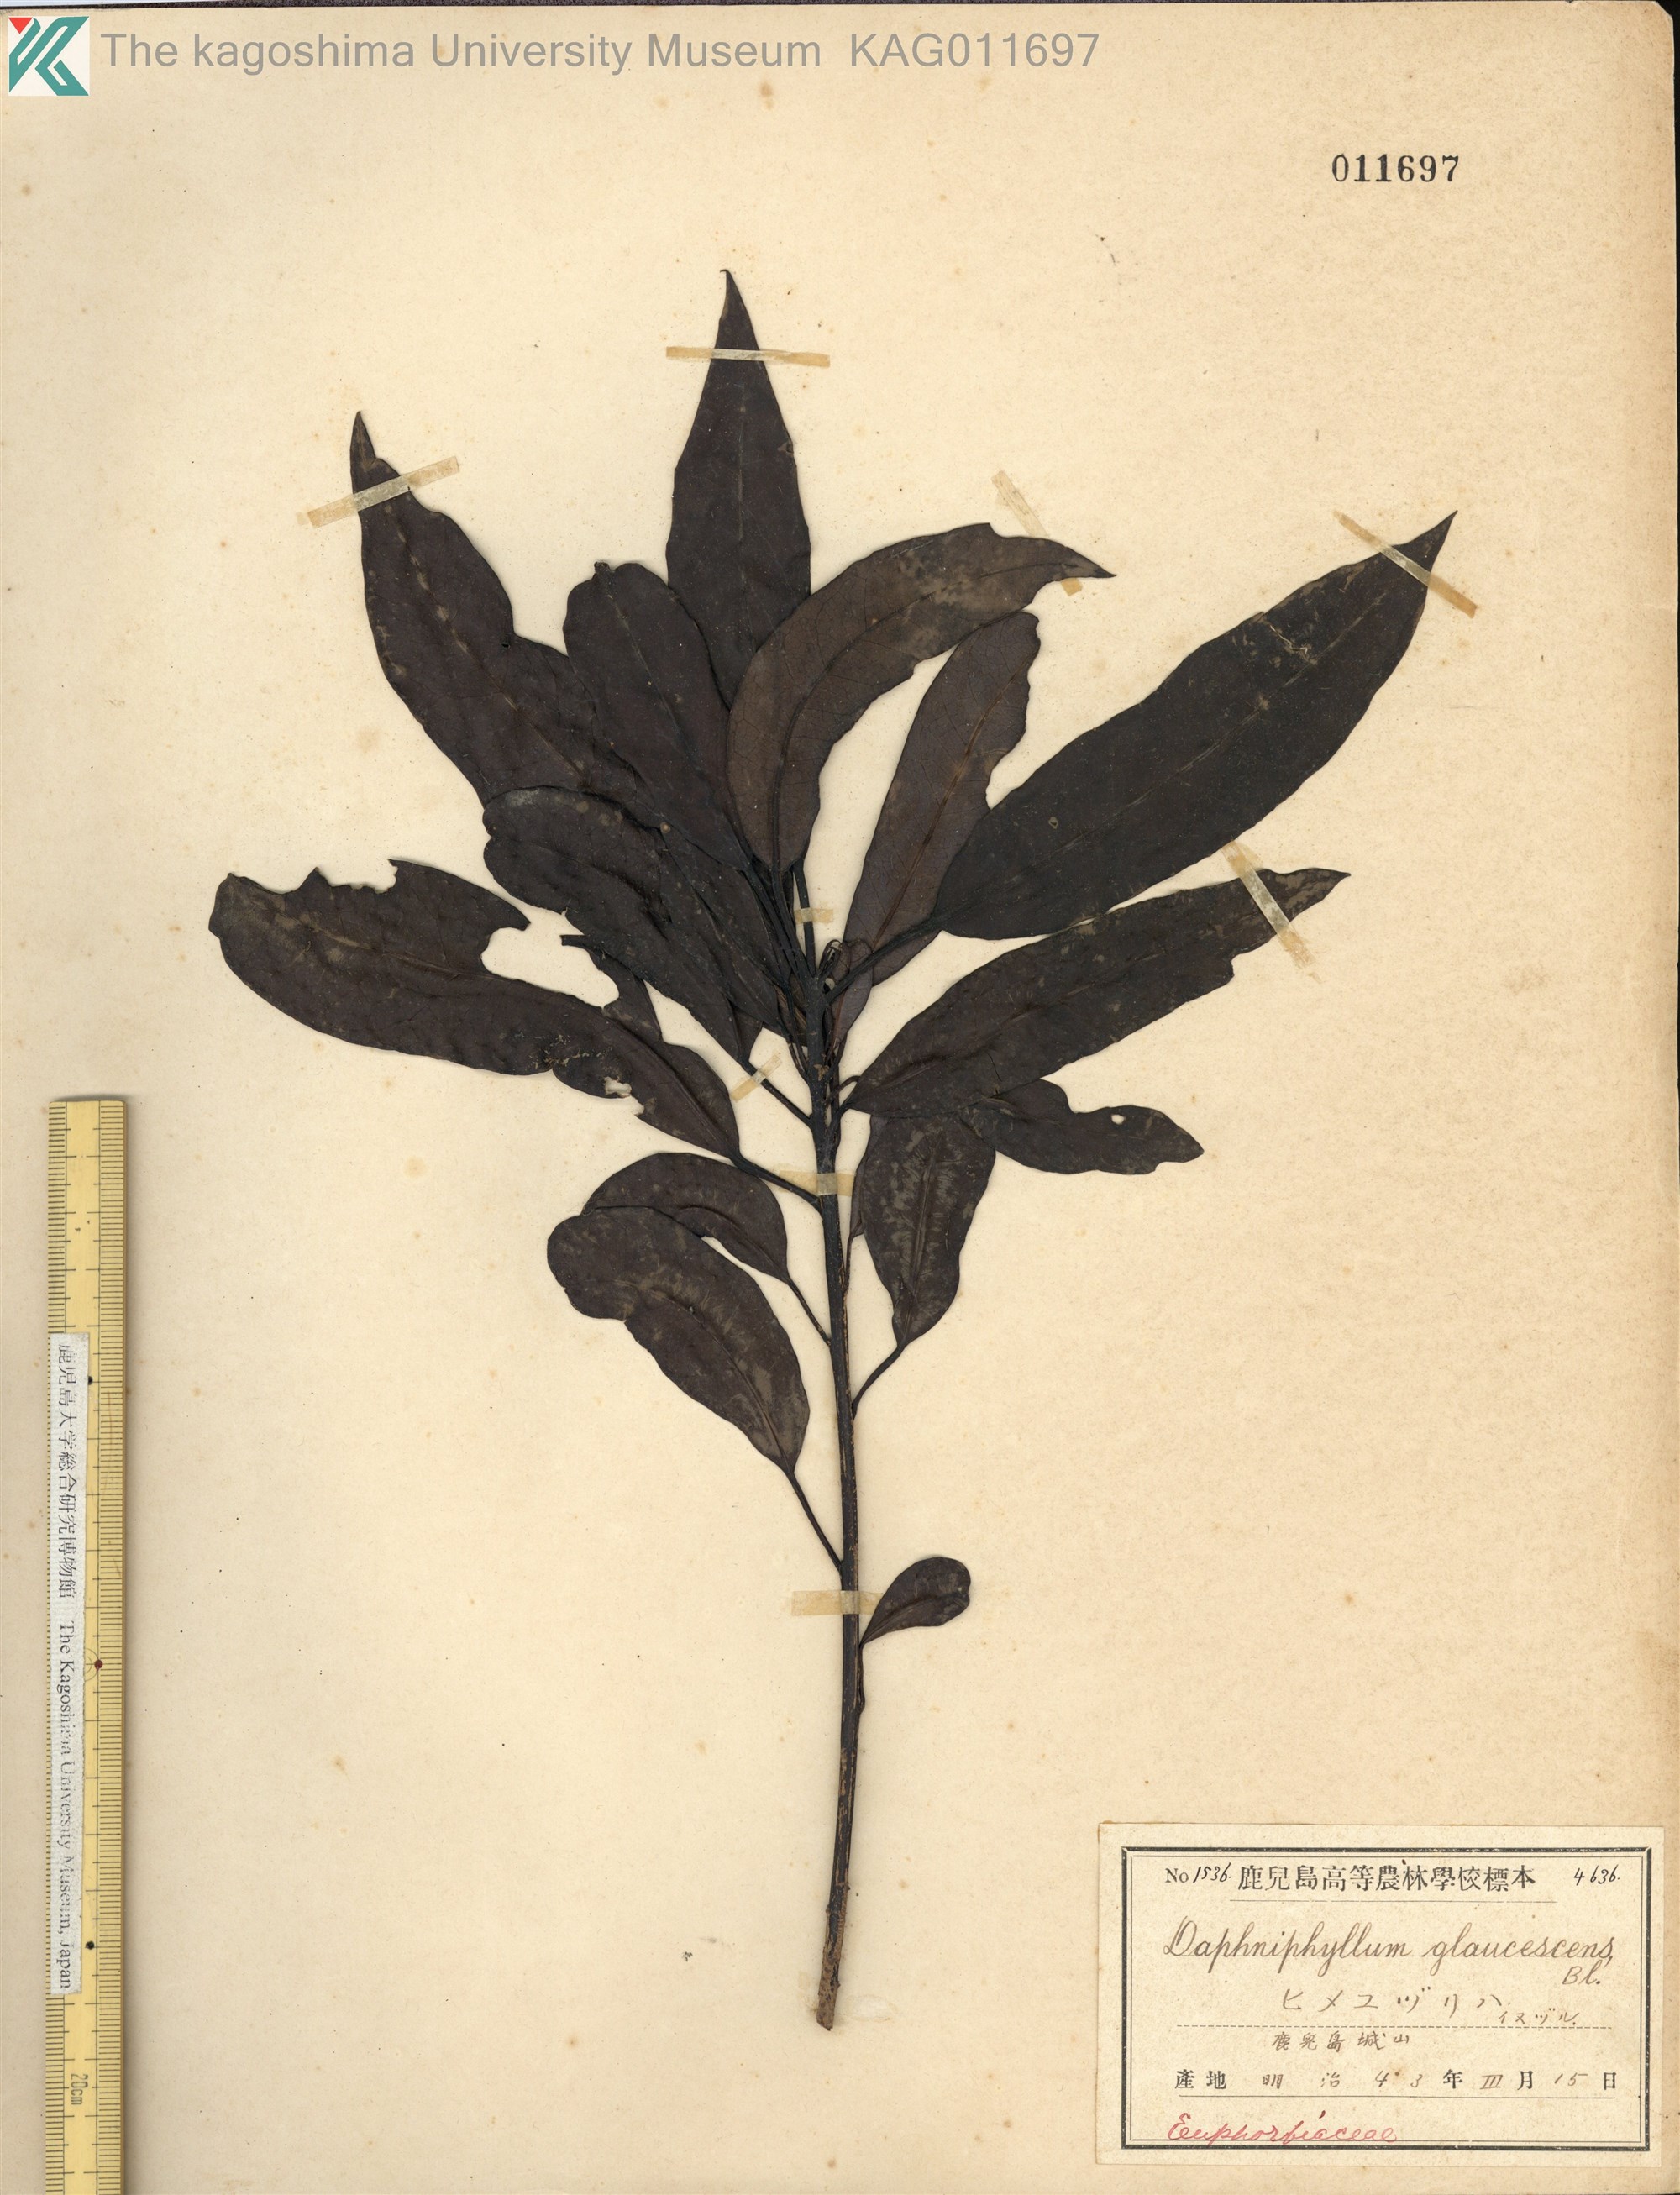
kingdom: Plantae
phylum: Tracheophyta
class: Magnoliopsida
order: Saxifragales
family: Daphniphyllaceae
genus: Daphniphyllum
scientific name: Daphniphyllum teijsmannii
